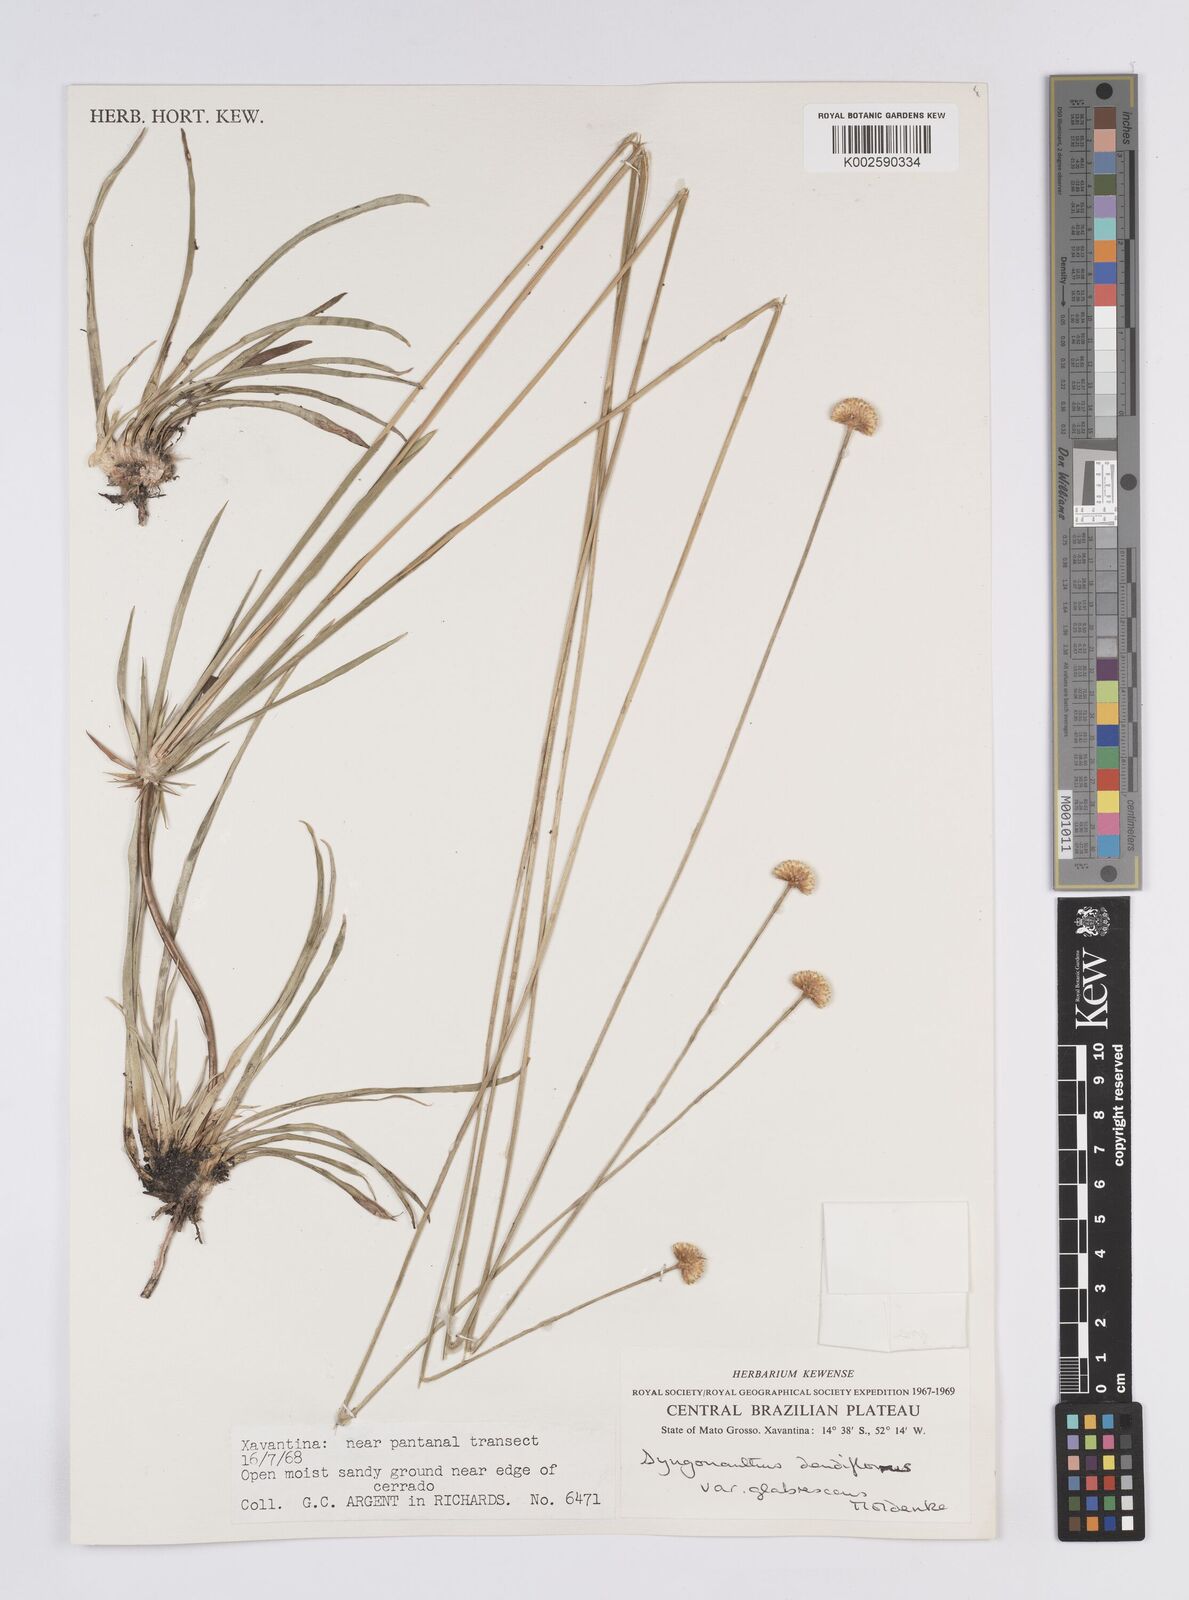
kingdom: Plantae
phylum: Tracheophyta
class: Liliopsida
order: Poales
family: Eriocaulaceae
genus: Syngonanthus
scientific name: Syngonanthus densiflorus
